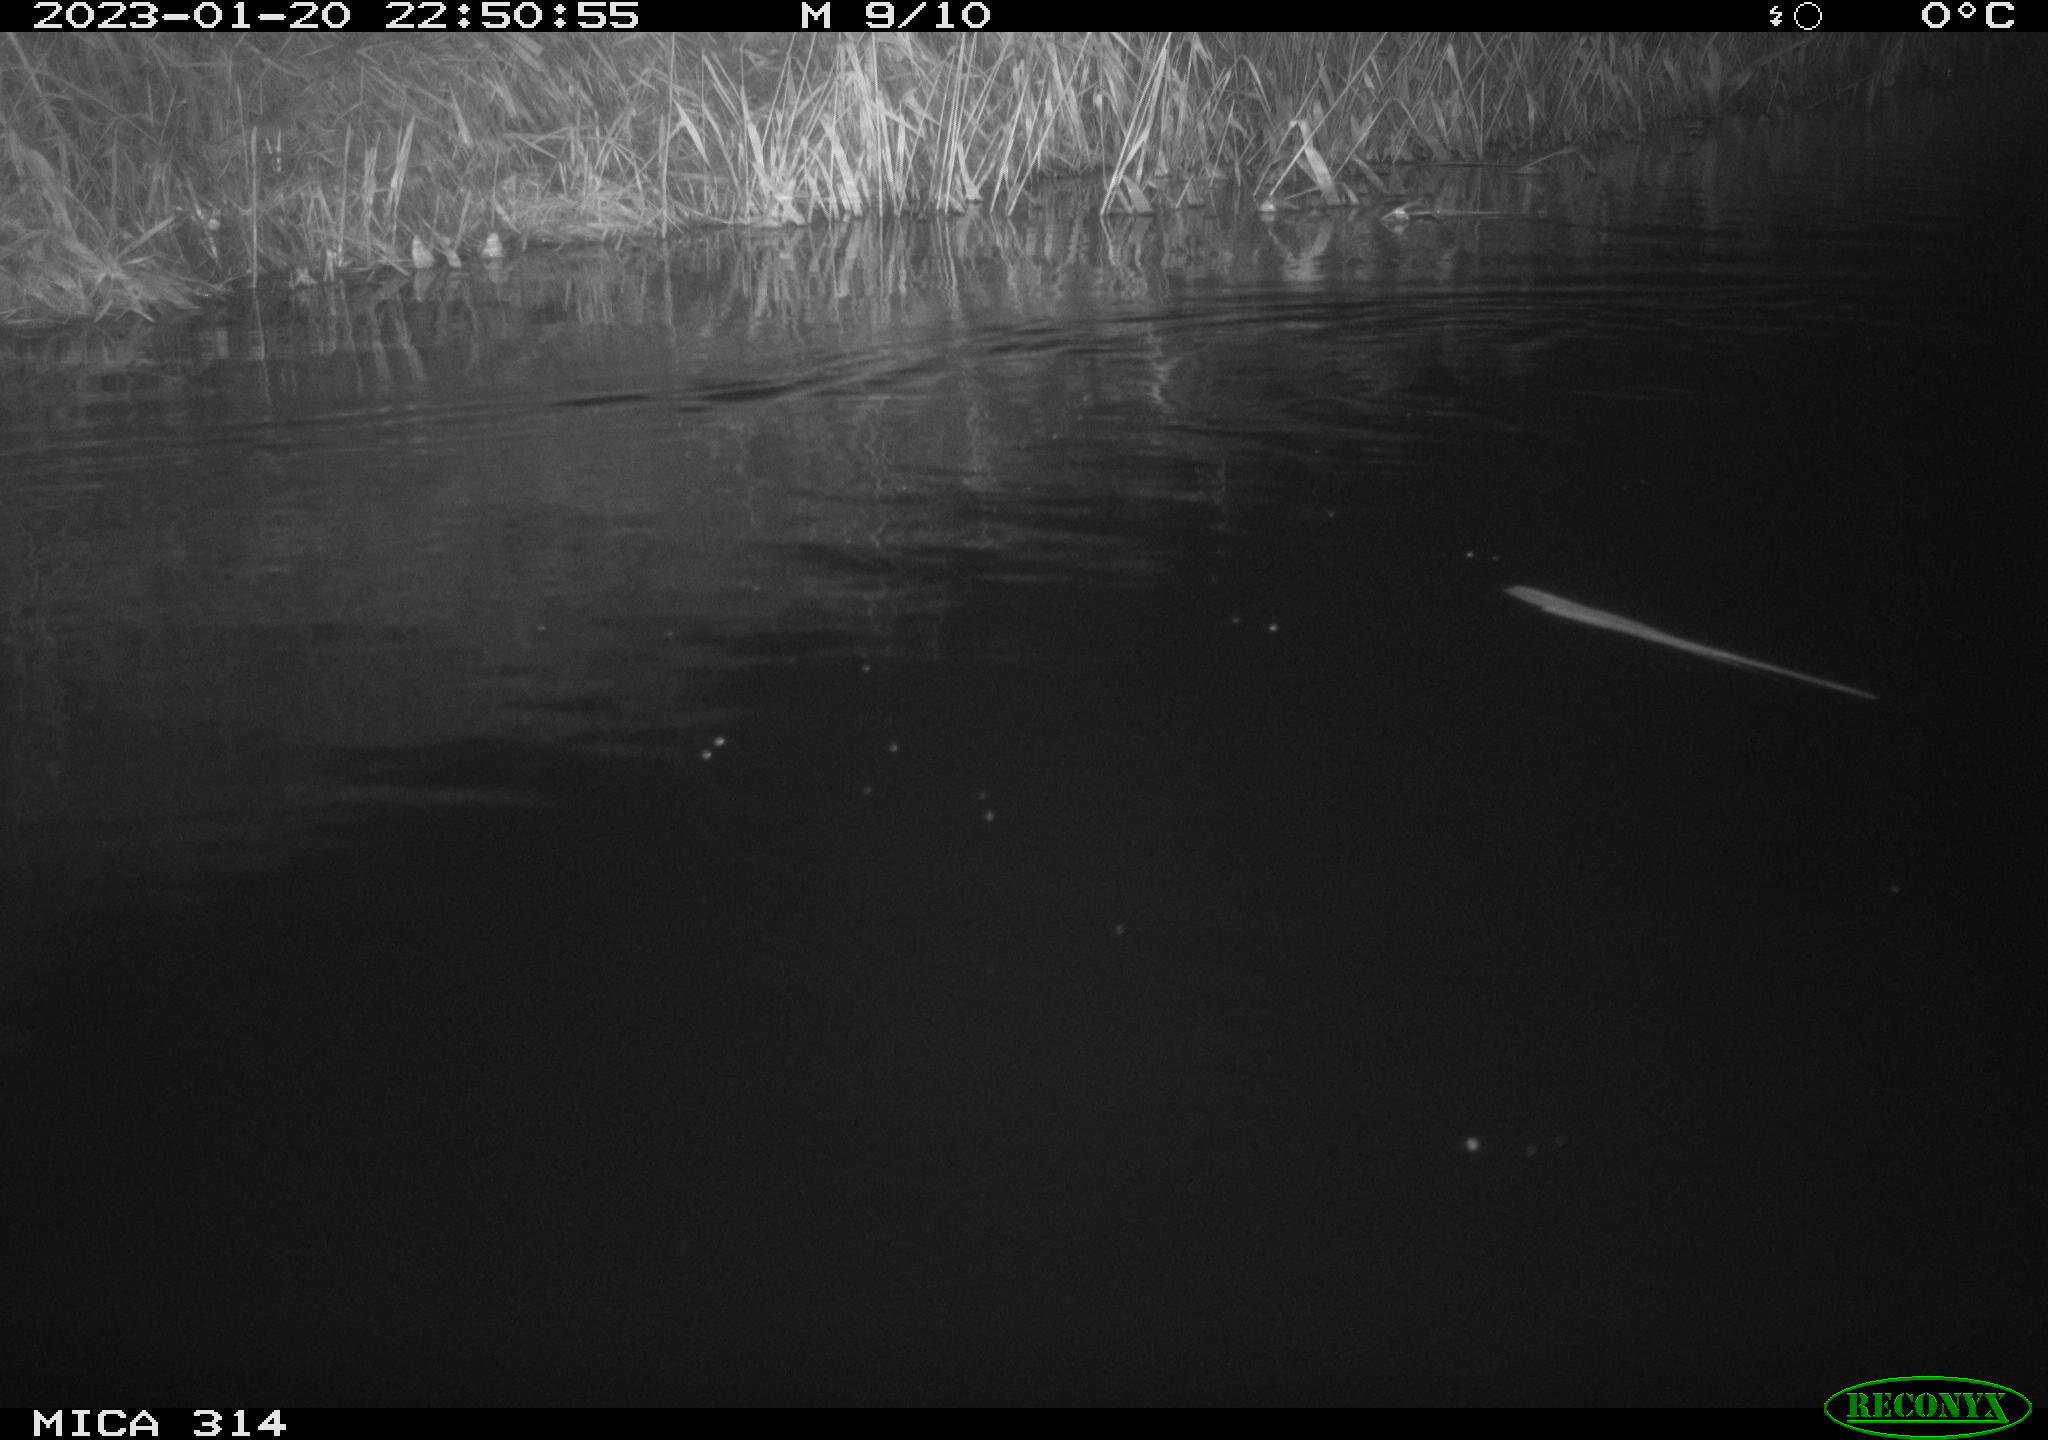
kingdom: Animalia
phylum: Chordata
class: Mammalia
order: Rodentia
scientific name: Rodentia
